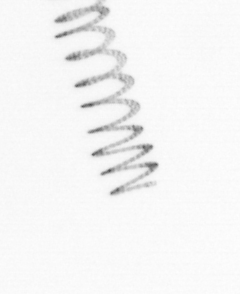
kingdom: Chromista
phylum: Ochrophyta
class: Bacillariophyceae
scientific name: Bacillariophyceae
